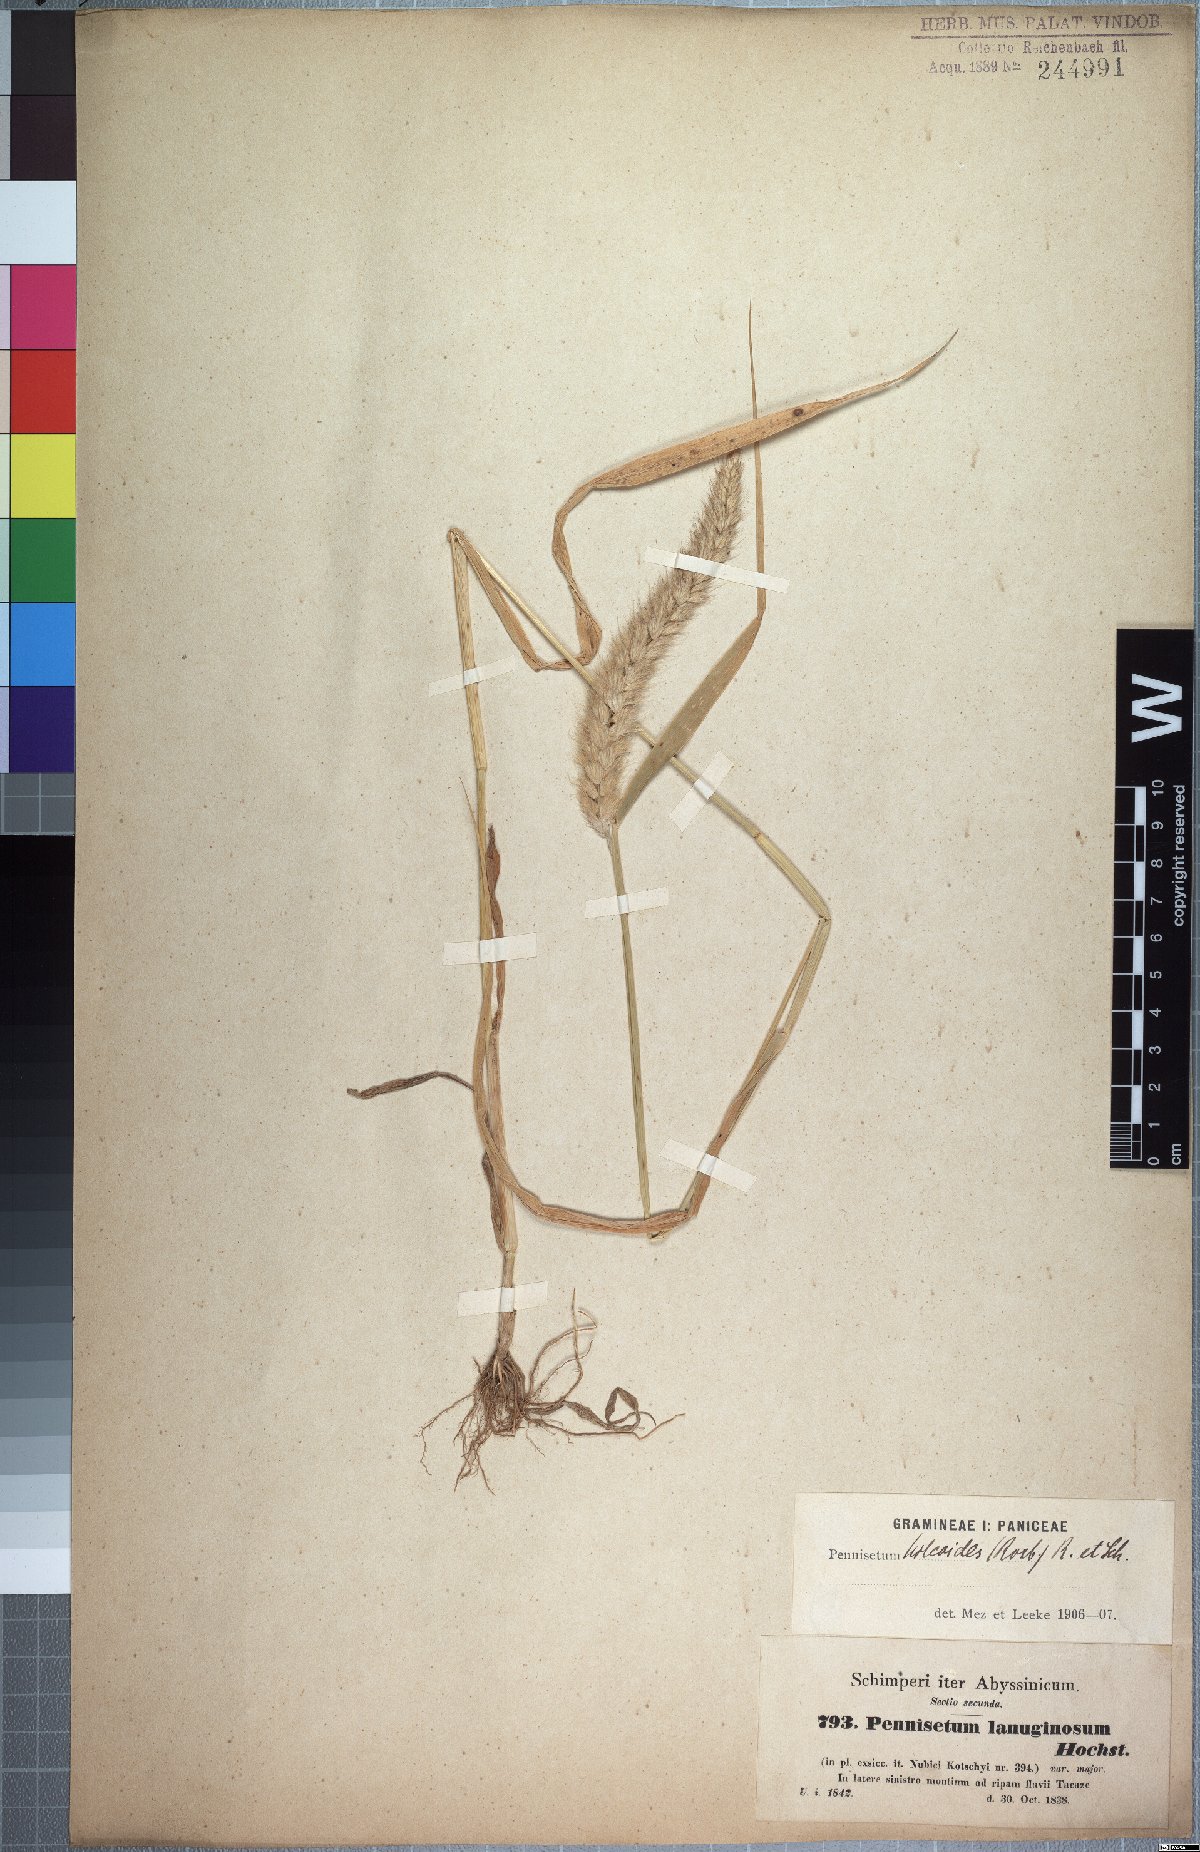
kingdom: Plantae
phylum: Tracheophyta
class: Liliopsida
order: Poales
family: Poaceae
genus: Cenchrus
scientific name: Cenchrus pedicellatus
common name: Hairy fountain grass
